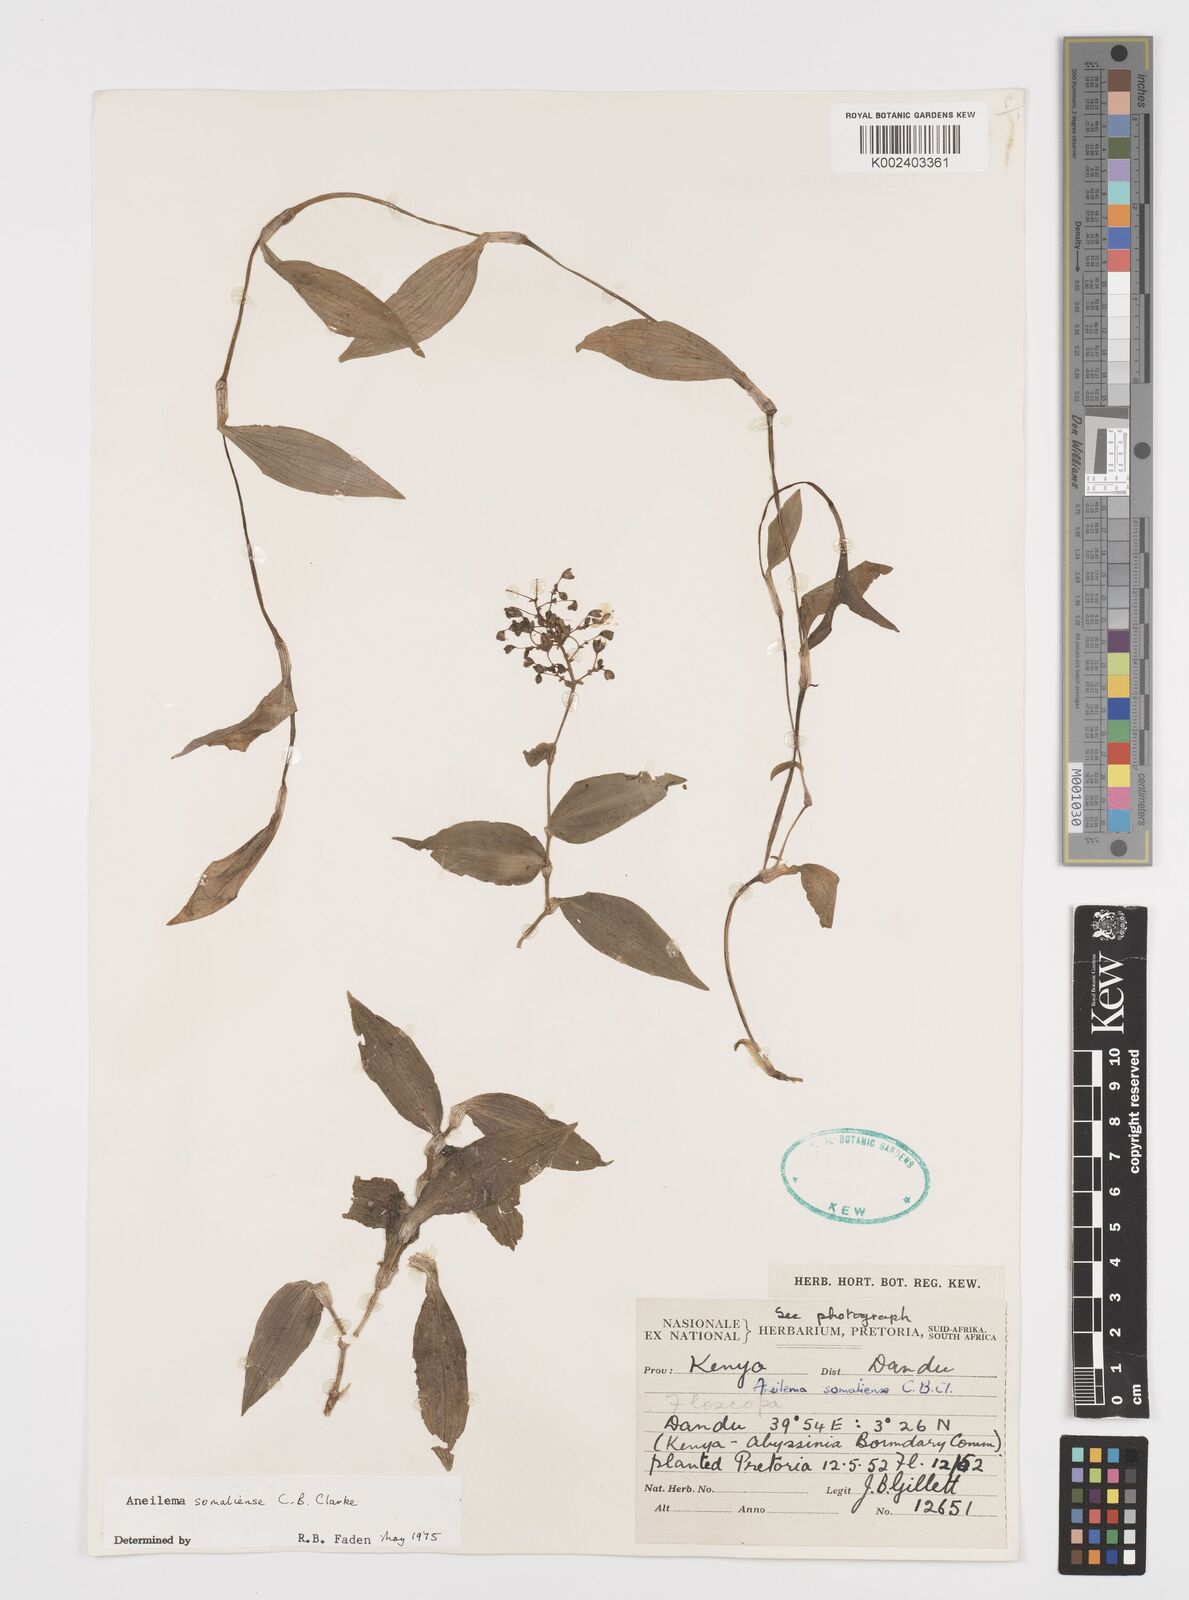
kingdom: Plantae
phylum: Tracheophyta
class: Liliopsida
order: Commelinales
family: Commelinaceae
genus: Aneilema
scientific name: Aneilema somaliense
